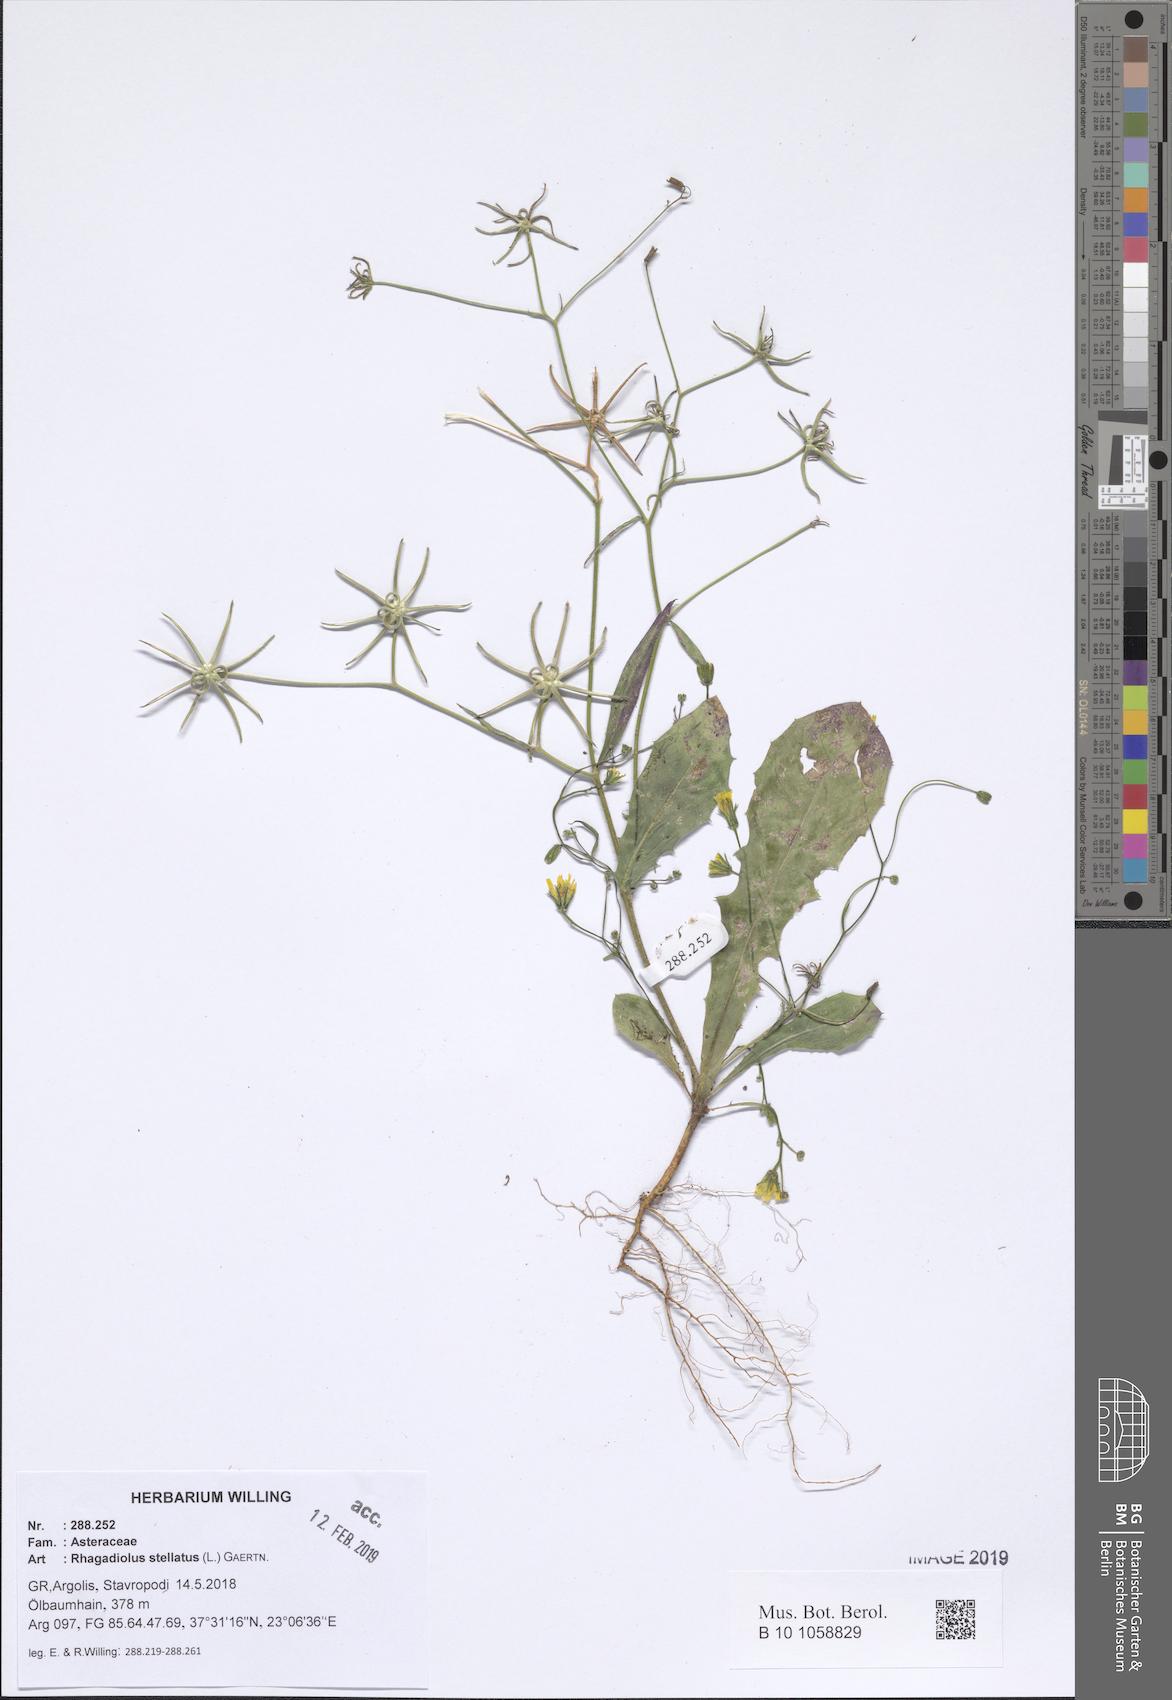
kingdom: Plantae
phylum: Tracheophyta
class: Magnoliopsida
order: Asterales
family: Asteraceae
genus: Rhagadiolus
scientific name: Rhagadiolus stellatus
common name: Star hawkbit
